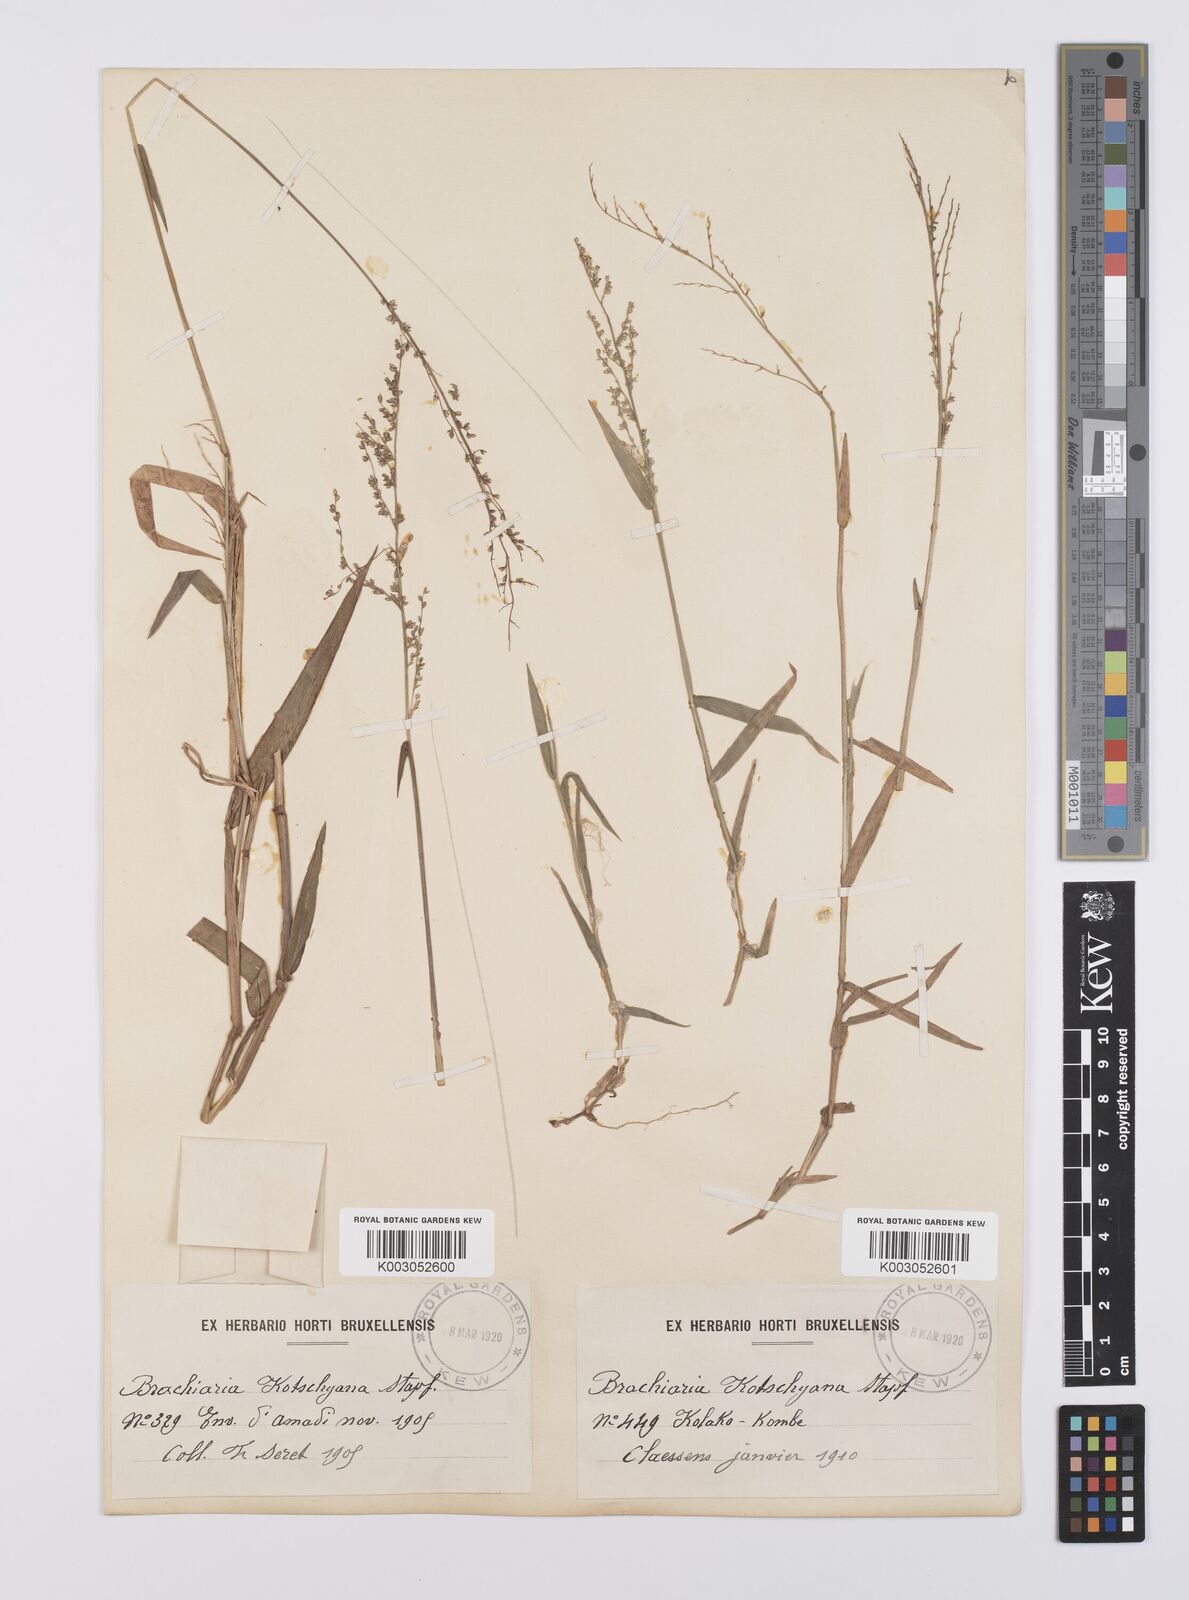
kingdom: Plantae
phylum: Tracheophyta
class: Liliopsida
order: Poales
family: Poaceae
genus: Urochloa
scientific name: Urochloa comata
